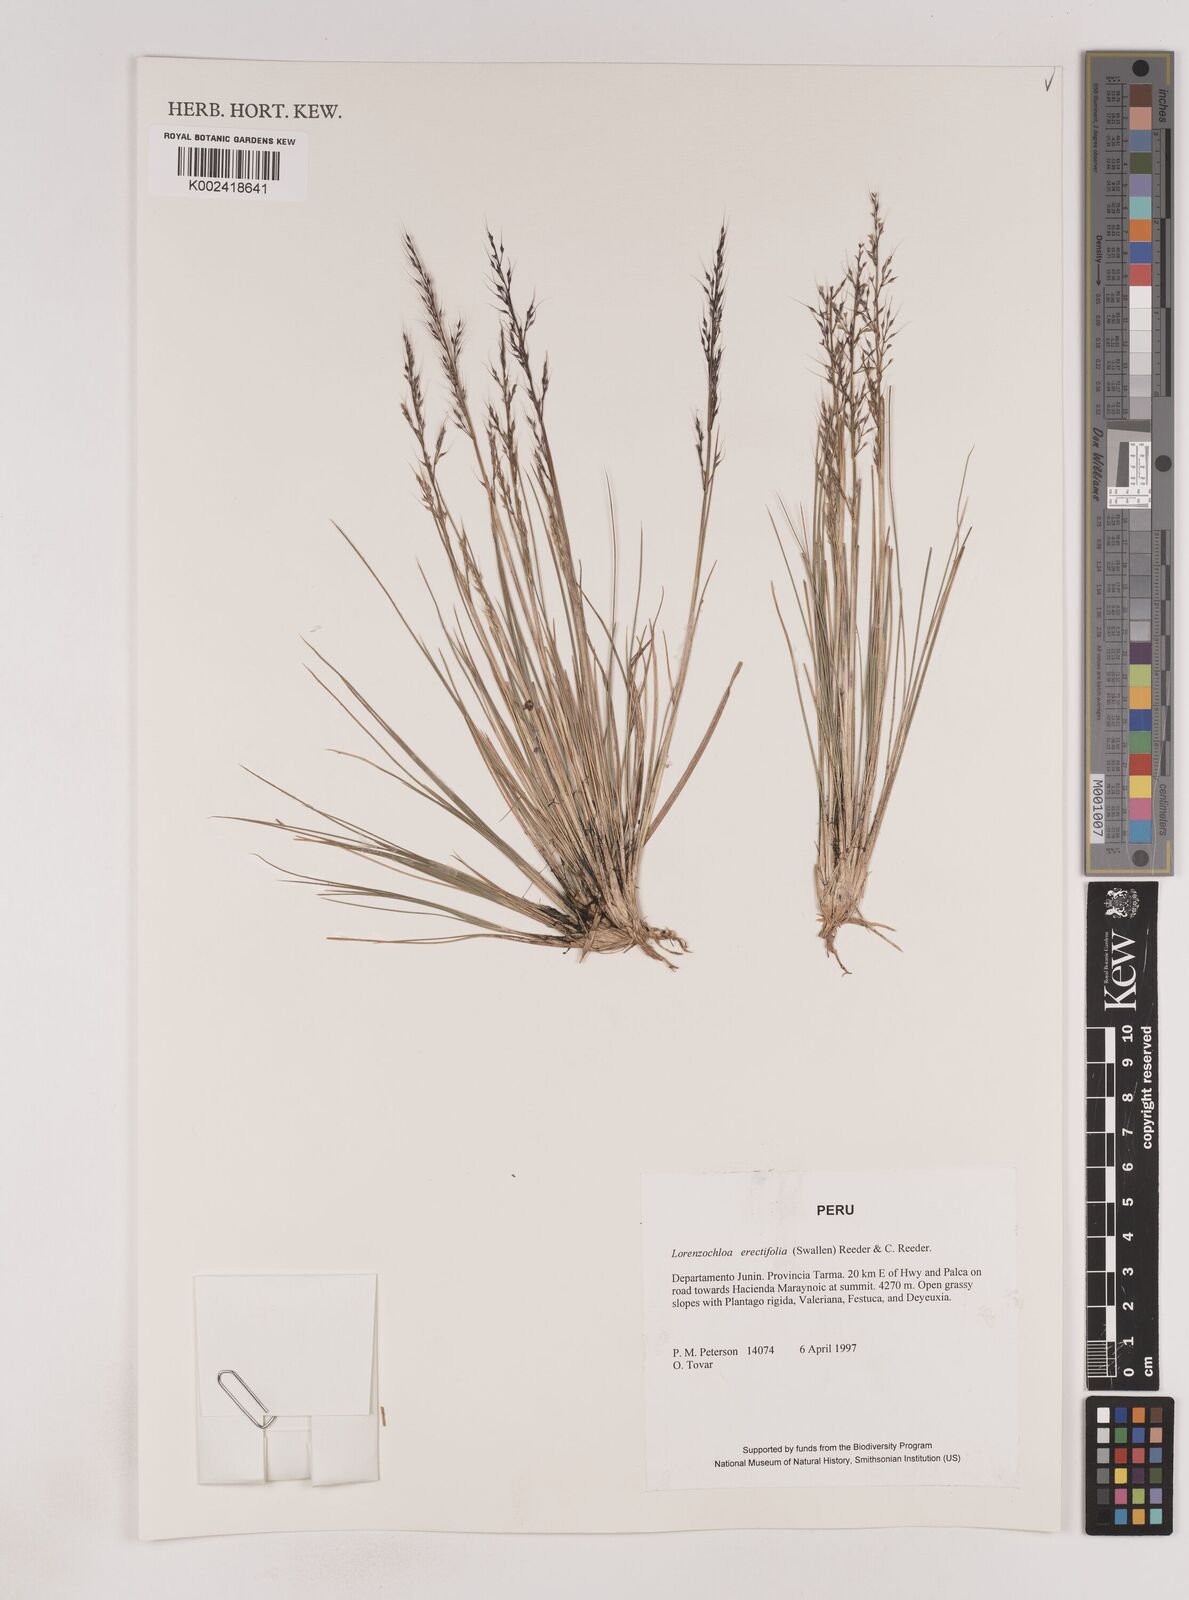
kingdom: Plantae
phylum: Tracheophyta
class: Liliopsida
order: Poales
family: Poaceae
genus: Lorenzochloa
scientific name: Lorenzochloa erectifolia
